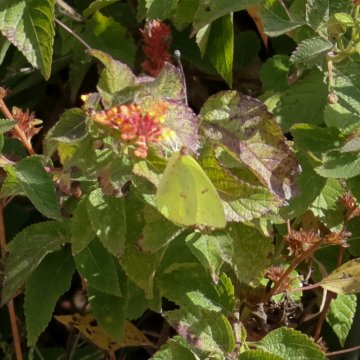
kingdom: Animalia
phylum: Arthropoda
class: Insecta
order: Lepidoptera
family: Pieridae
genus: Phoebis
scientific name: Phoebis sennae
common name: Cloudless Sulphur
